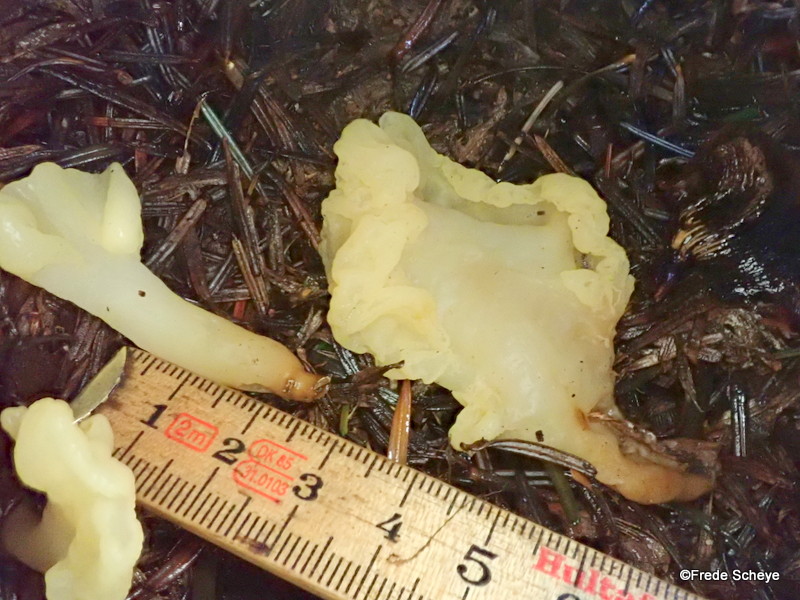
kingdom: Fungi
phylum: Ascomycota
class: Leotiomycetes
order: Rhytismatales
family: Cudoniaceae
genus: Spathularia
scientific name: Spathularia flavida
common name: gul spatelsvamp
